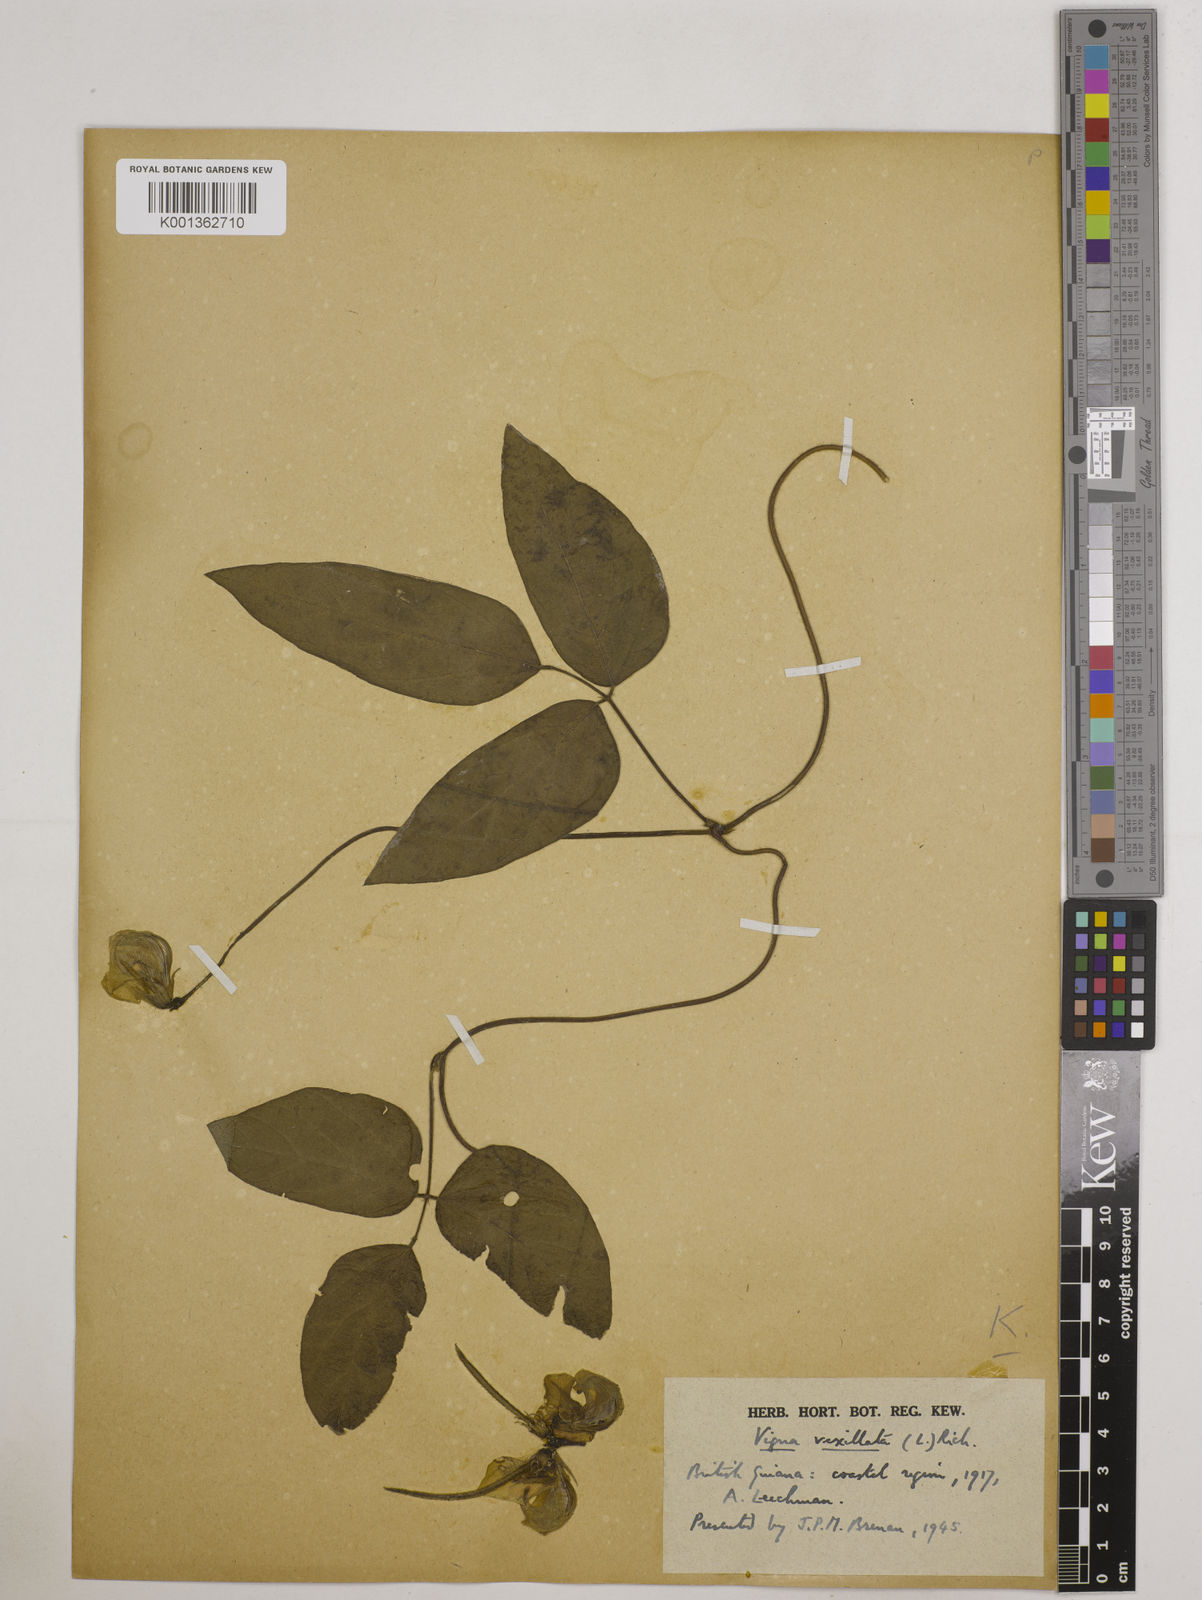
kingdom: Plantae
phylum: Tracheophyta
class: Magnoliopsida
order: Fabales
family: Fabaceae
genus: Vigna
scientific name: Vigna vexillata
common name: Zombi pea
